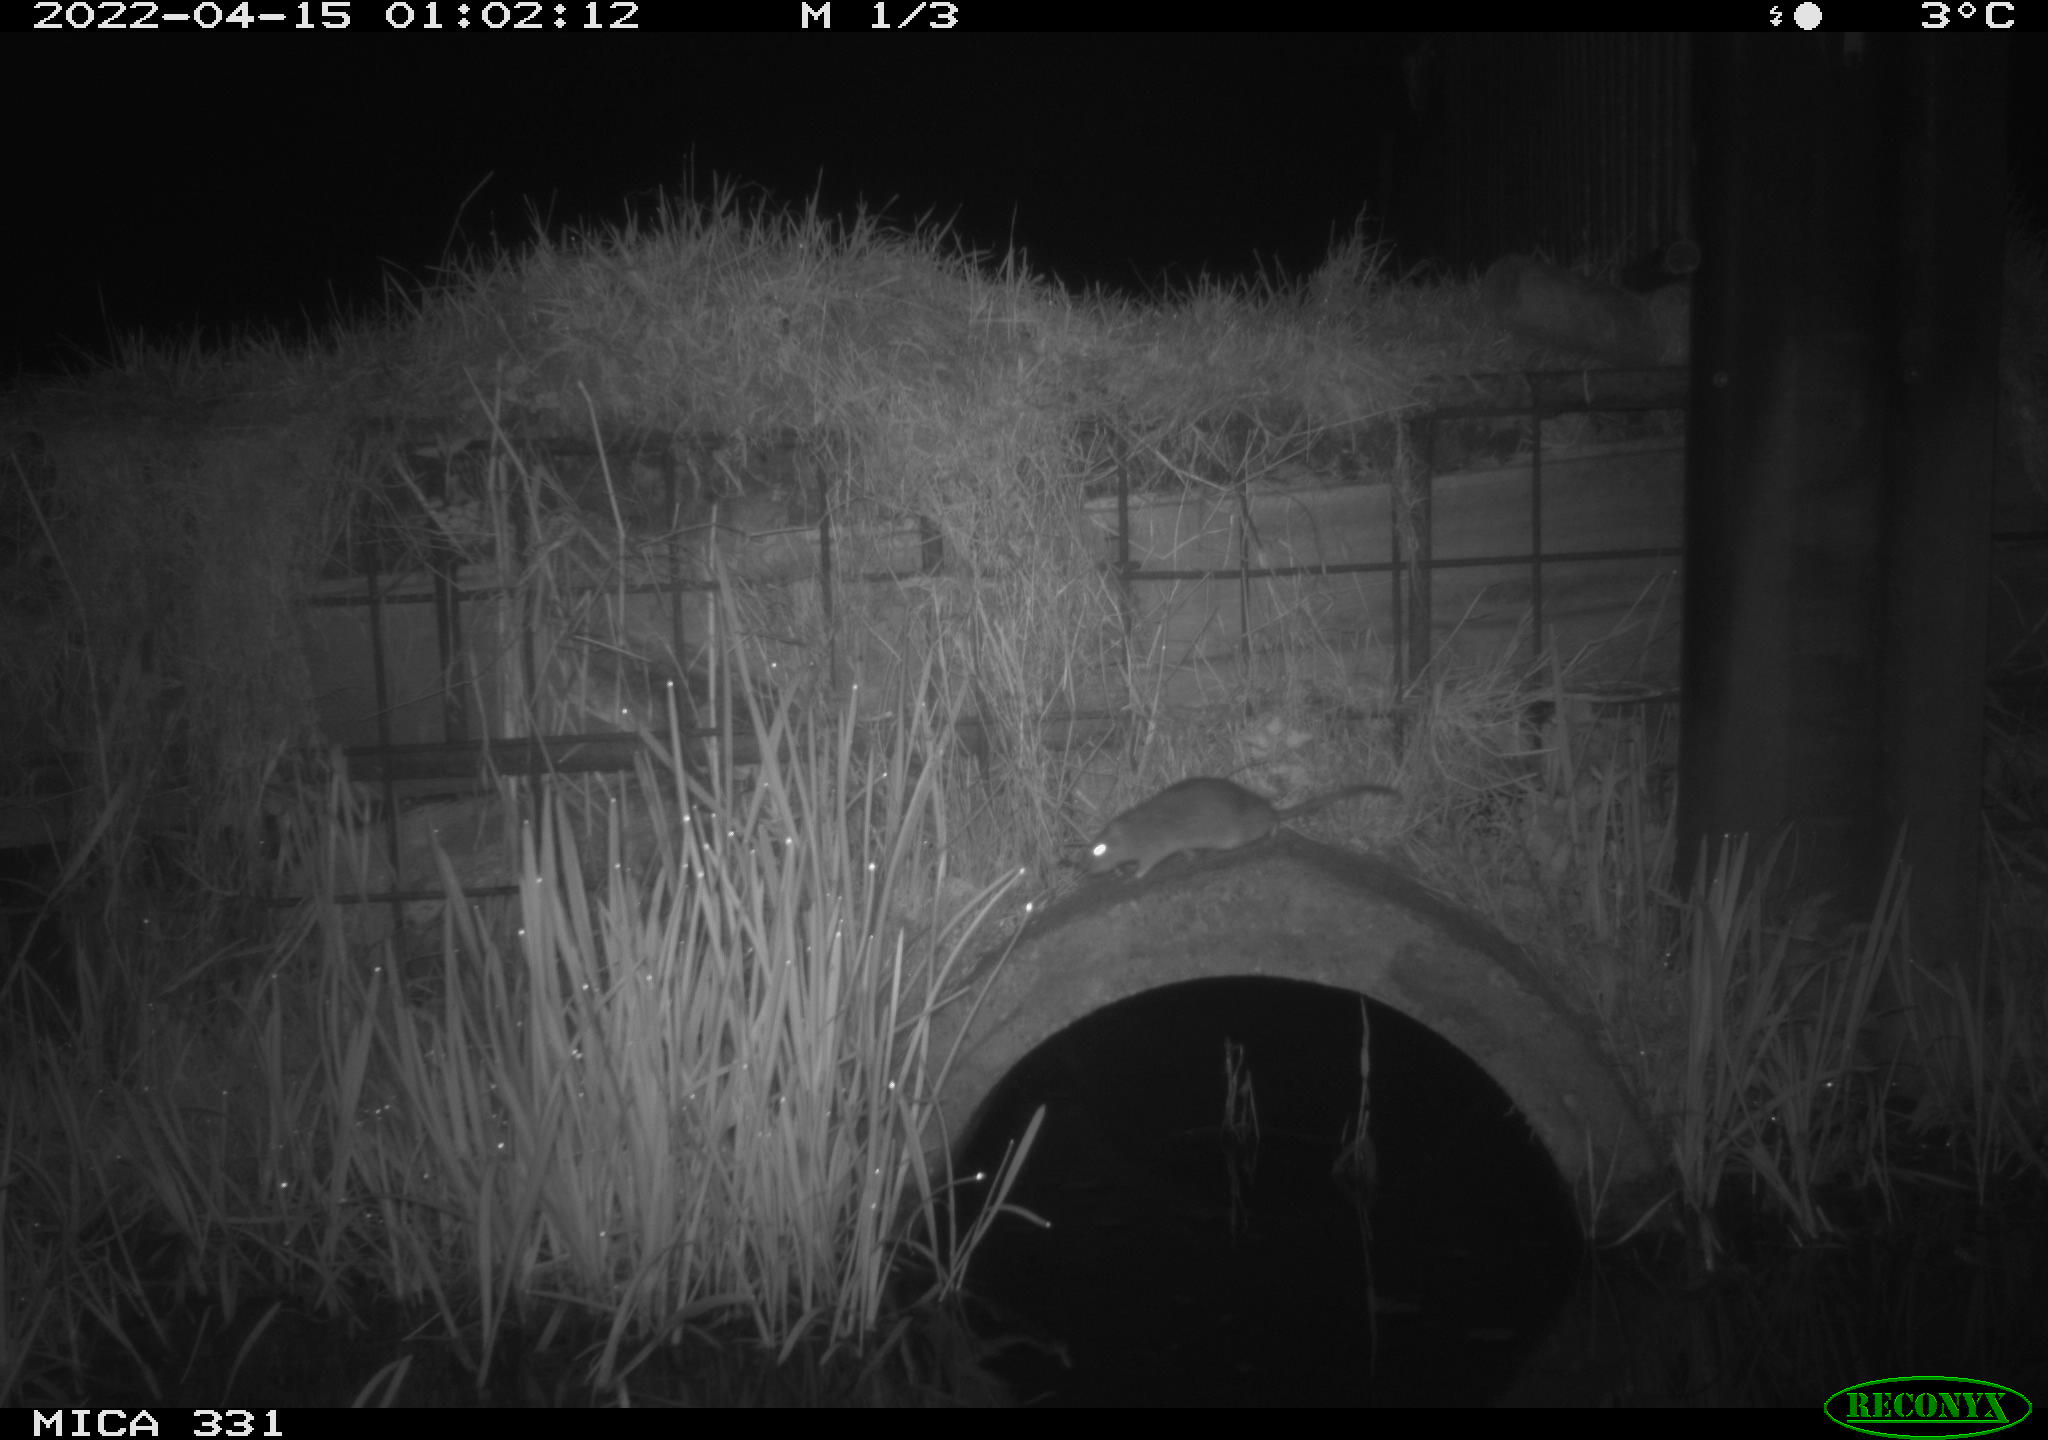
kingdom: Animalia
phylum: Chordata
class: Mammalia
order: Rodentia
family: Muridae
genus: Rattus
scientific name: Rattus norvegicus
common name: Brown rat
